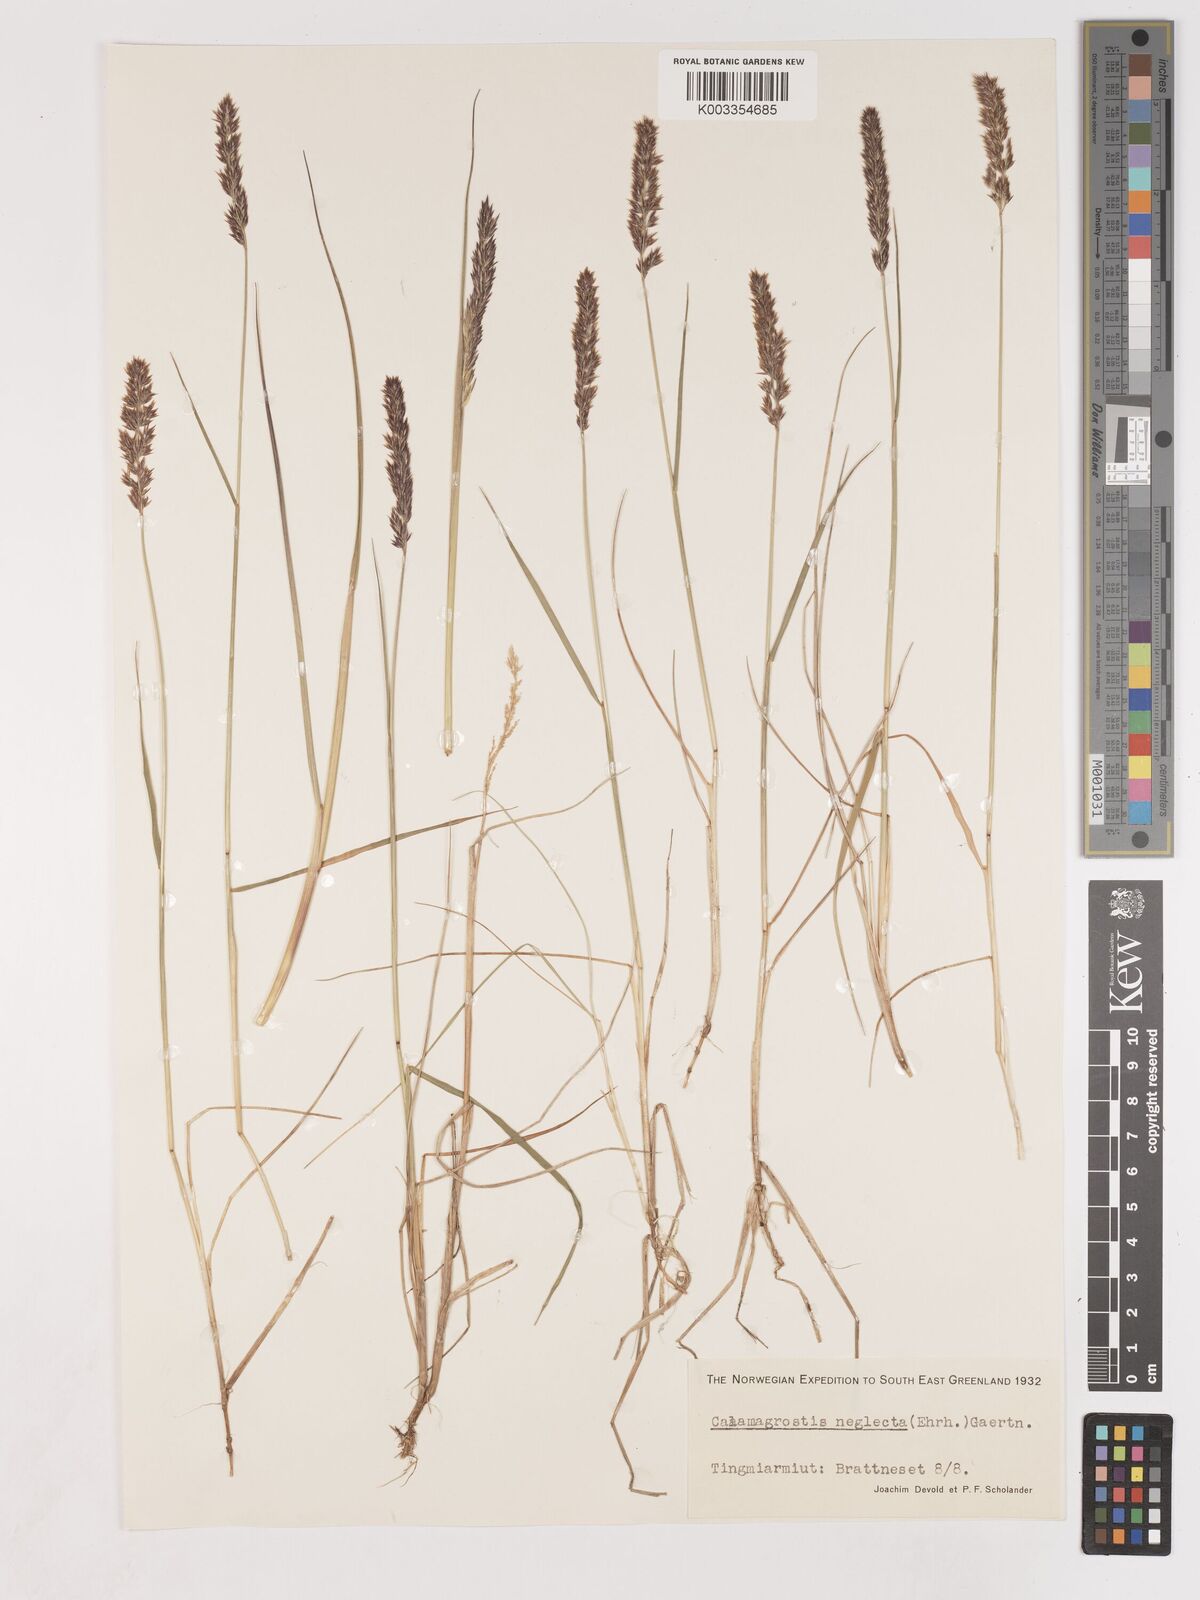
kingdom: Plantae
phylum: Tracheophyta
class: Liliopsida
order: Poales
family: Poaceae
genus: Cinnagrostis
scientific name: Cinnagrostis recta
